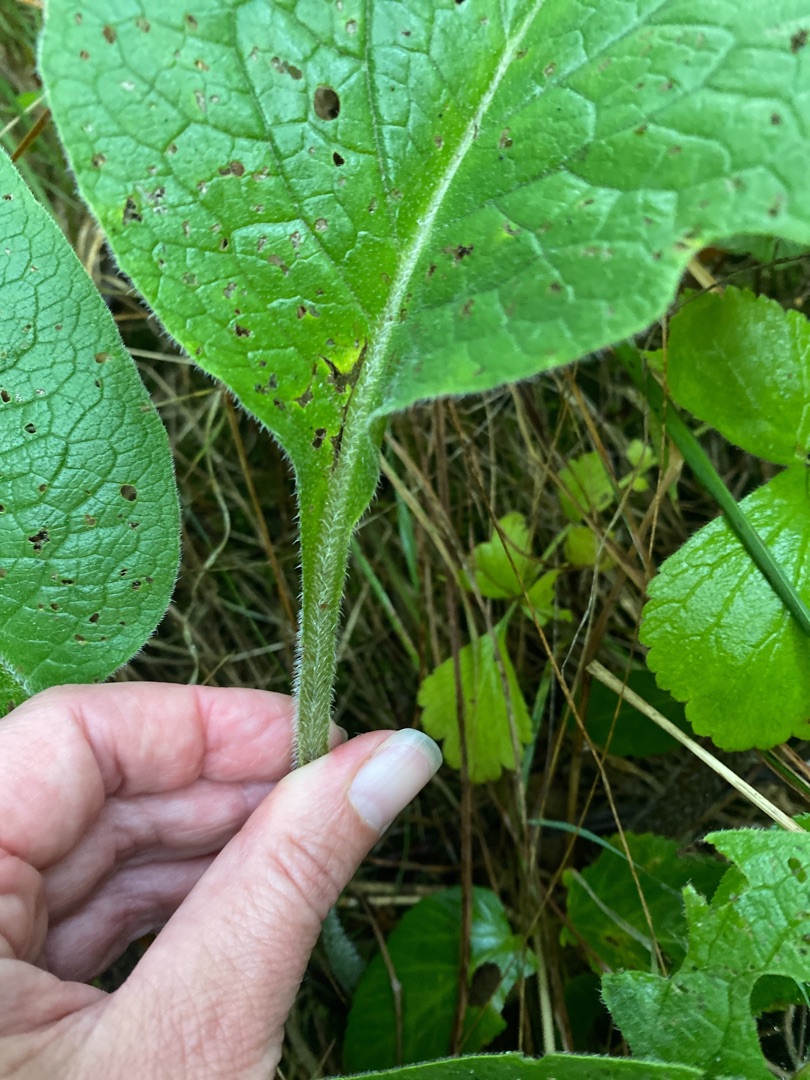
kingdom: Plantae
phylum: Tracheophyta
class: Magnoliopsida
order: Boraginales
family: Boraginaceae
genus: Symphytum
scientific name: Symphytum uplandicum
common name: Foder-kulsukker
